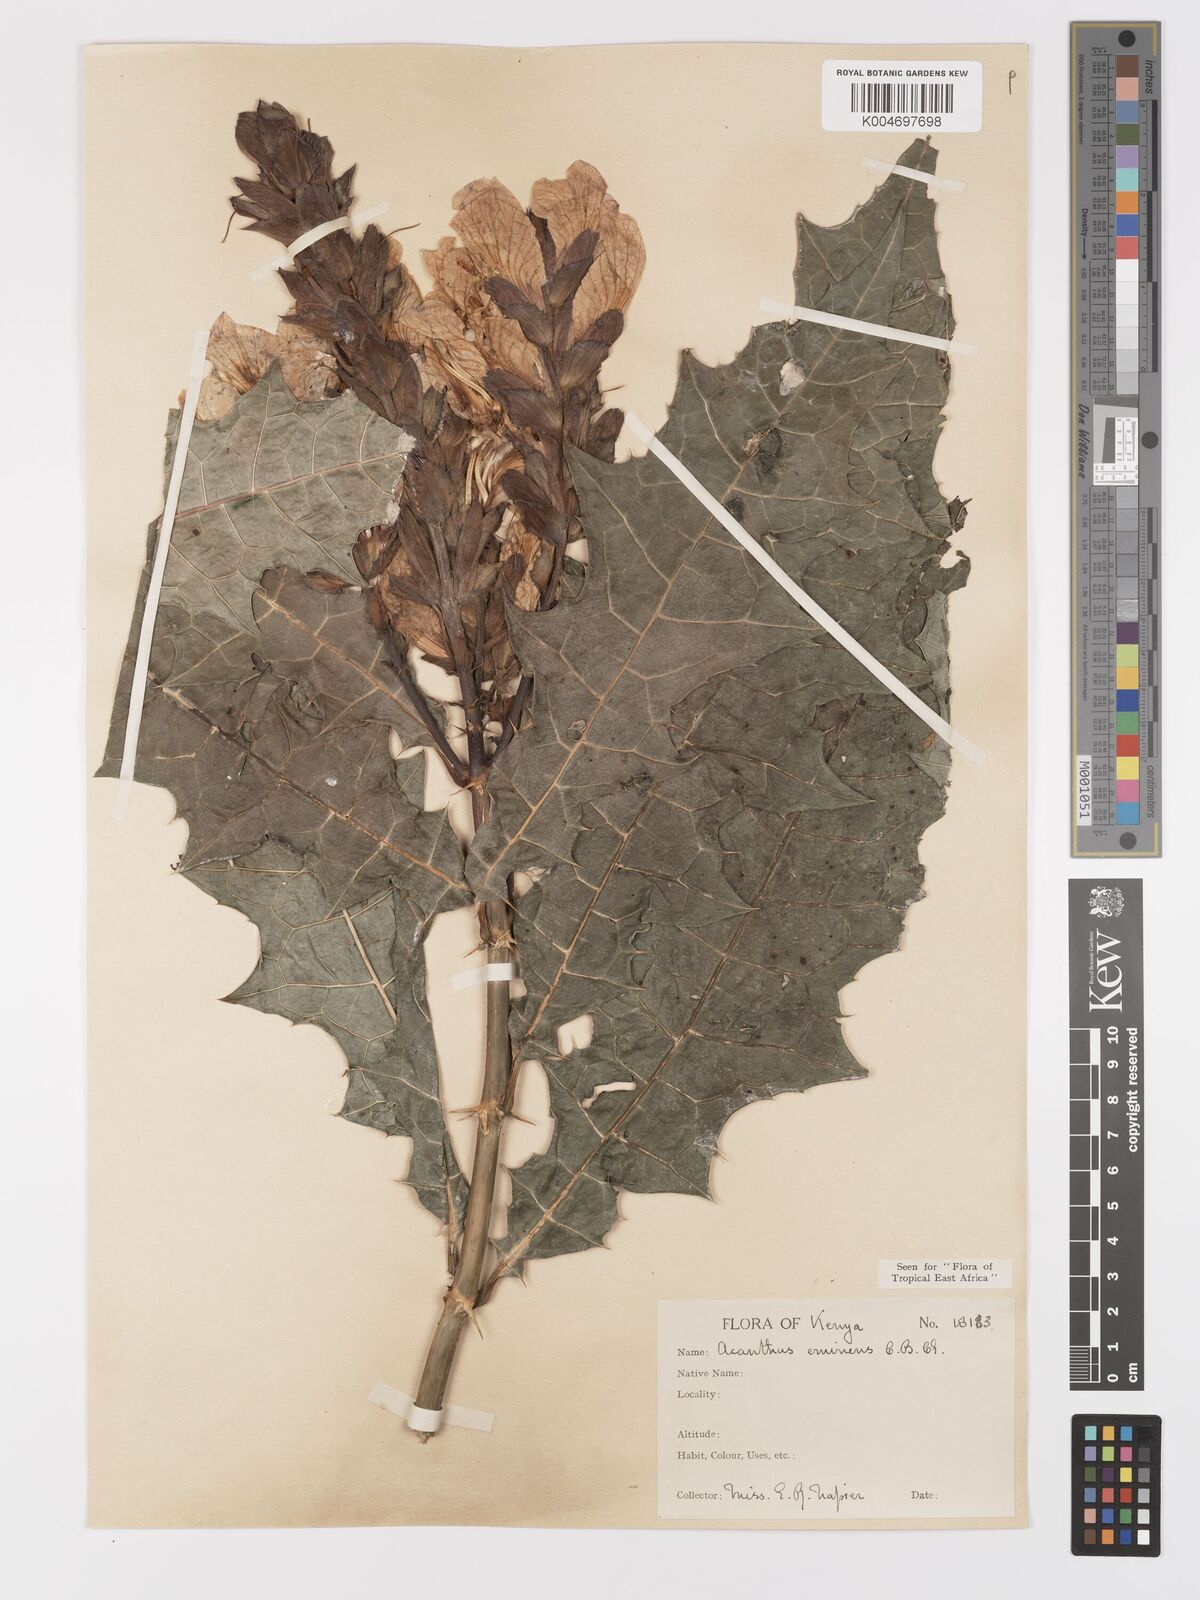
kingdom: Plantae
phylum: Tracheophyta
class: Magnoliopsida
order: Lamiales
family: Acanthaceae
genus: Acanthus
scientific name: Acanthus eminens
